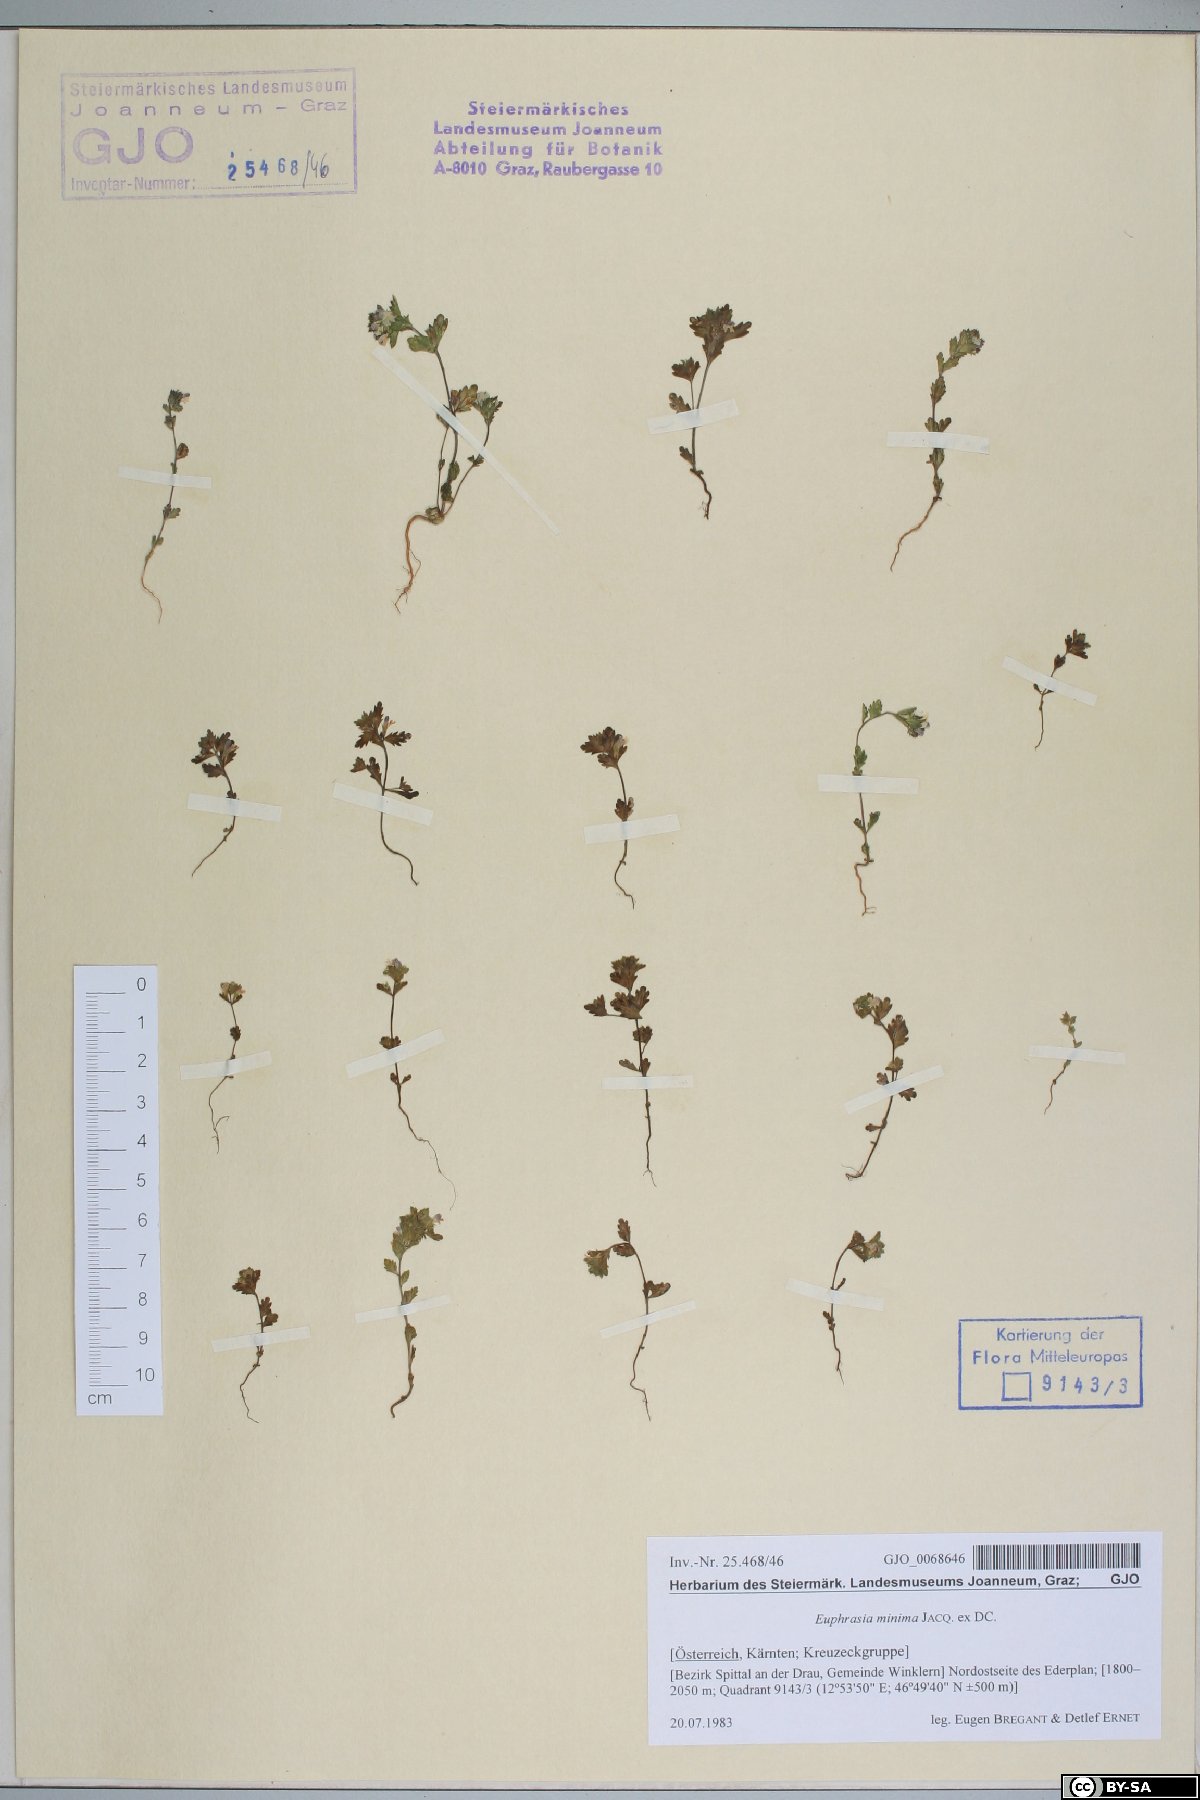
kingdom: Plantae
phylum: Tracheophyta
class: Magnoliopsida
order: Lamiales
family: Orobanchaceae
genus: Euphrasia
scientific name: Euphrasia minima
